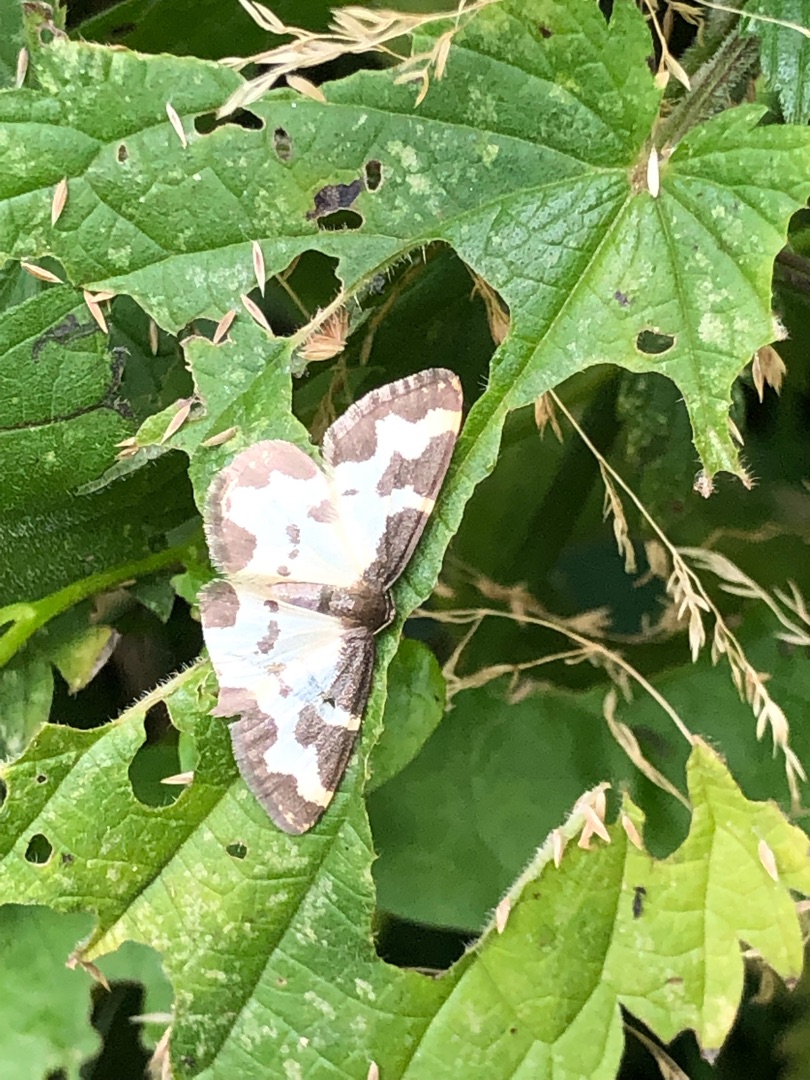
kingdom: Animalia
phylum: Arthropoda
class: Insecta
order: Lepidoptera
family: Geometridae
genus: Lomaspilis
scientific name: Lomaspilis marginata
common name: Sortrandet måler
